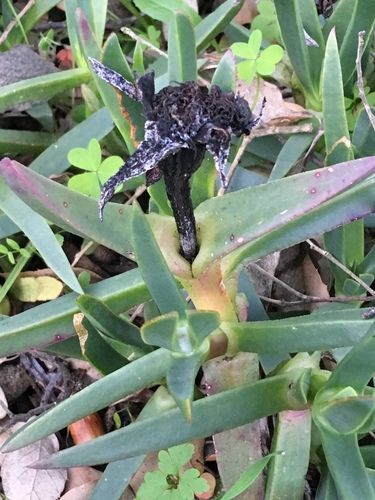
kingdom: Plantae
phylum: Tracheophyta
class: Magnoliopsida
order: Caryophyllales
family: Aizoaceae
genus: Carpobrotus
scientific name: Carpobrotus edulis
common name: Hottentot-fig
